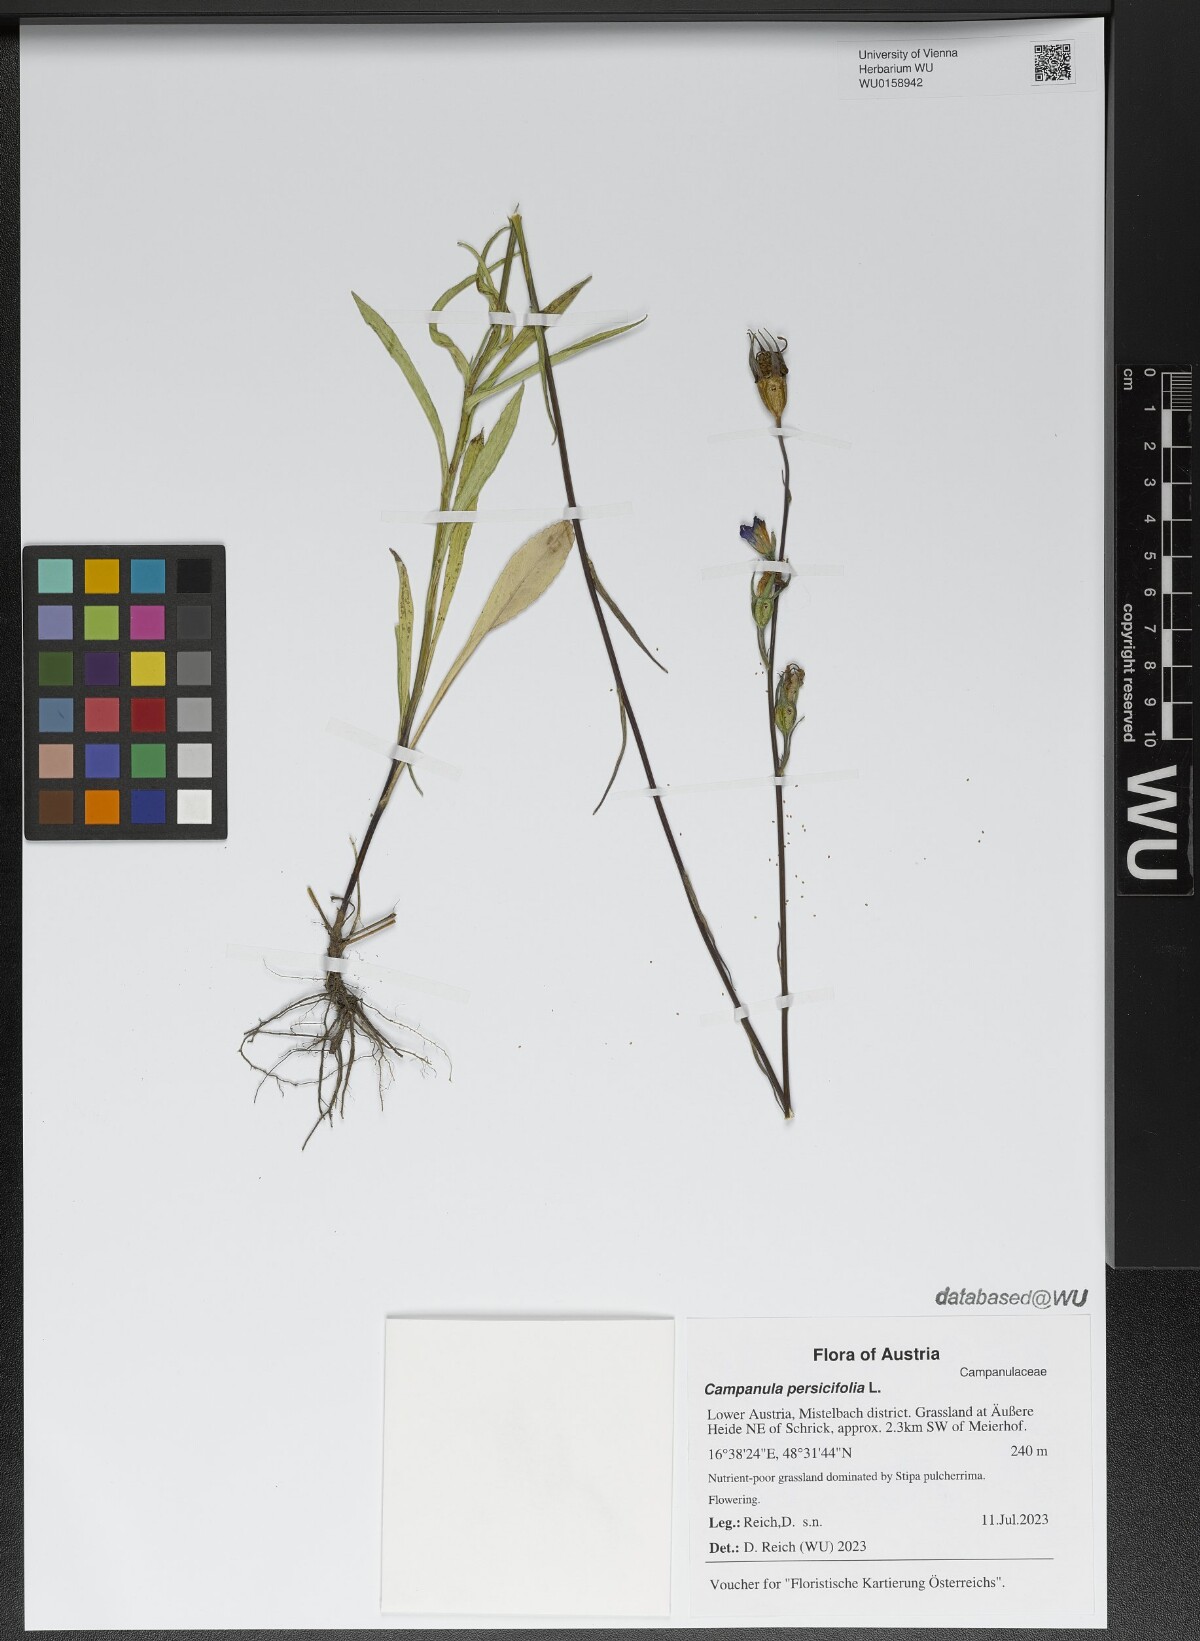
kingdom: Plantae
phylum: Tracheophyta
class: Magnoliopsida
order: Asterales
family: Campanulaceae
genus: Campanula
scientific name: Campanula persicifolia
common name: Peach-leaved bellflower
